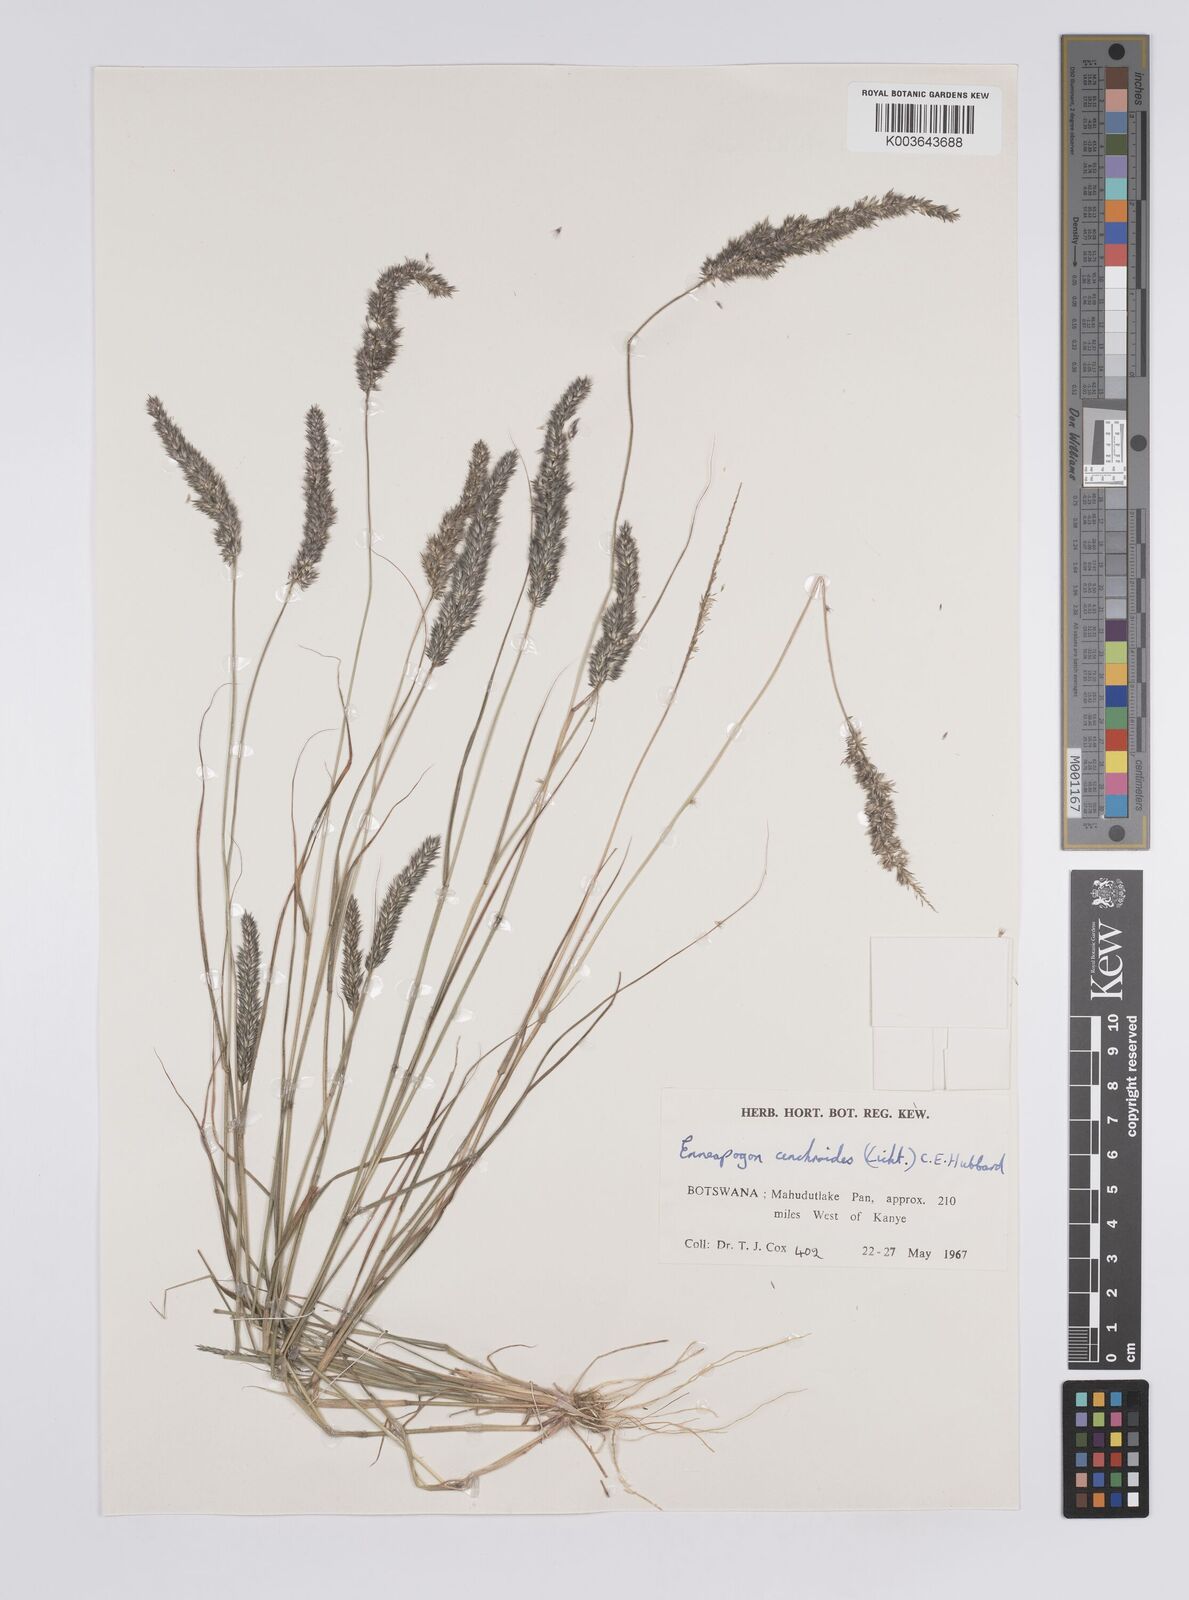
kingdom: Plantae
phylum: Tracheophyta
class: Liliopsida
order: Poales
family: Poaceae
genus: Enneapogon
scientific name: Enneapogon cenchroides
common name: Soft feather pappusgrass
